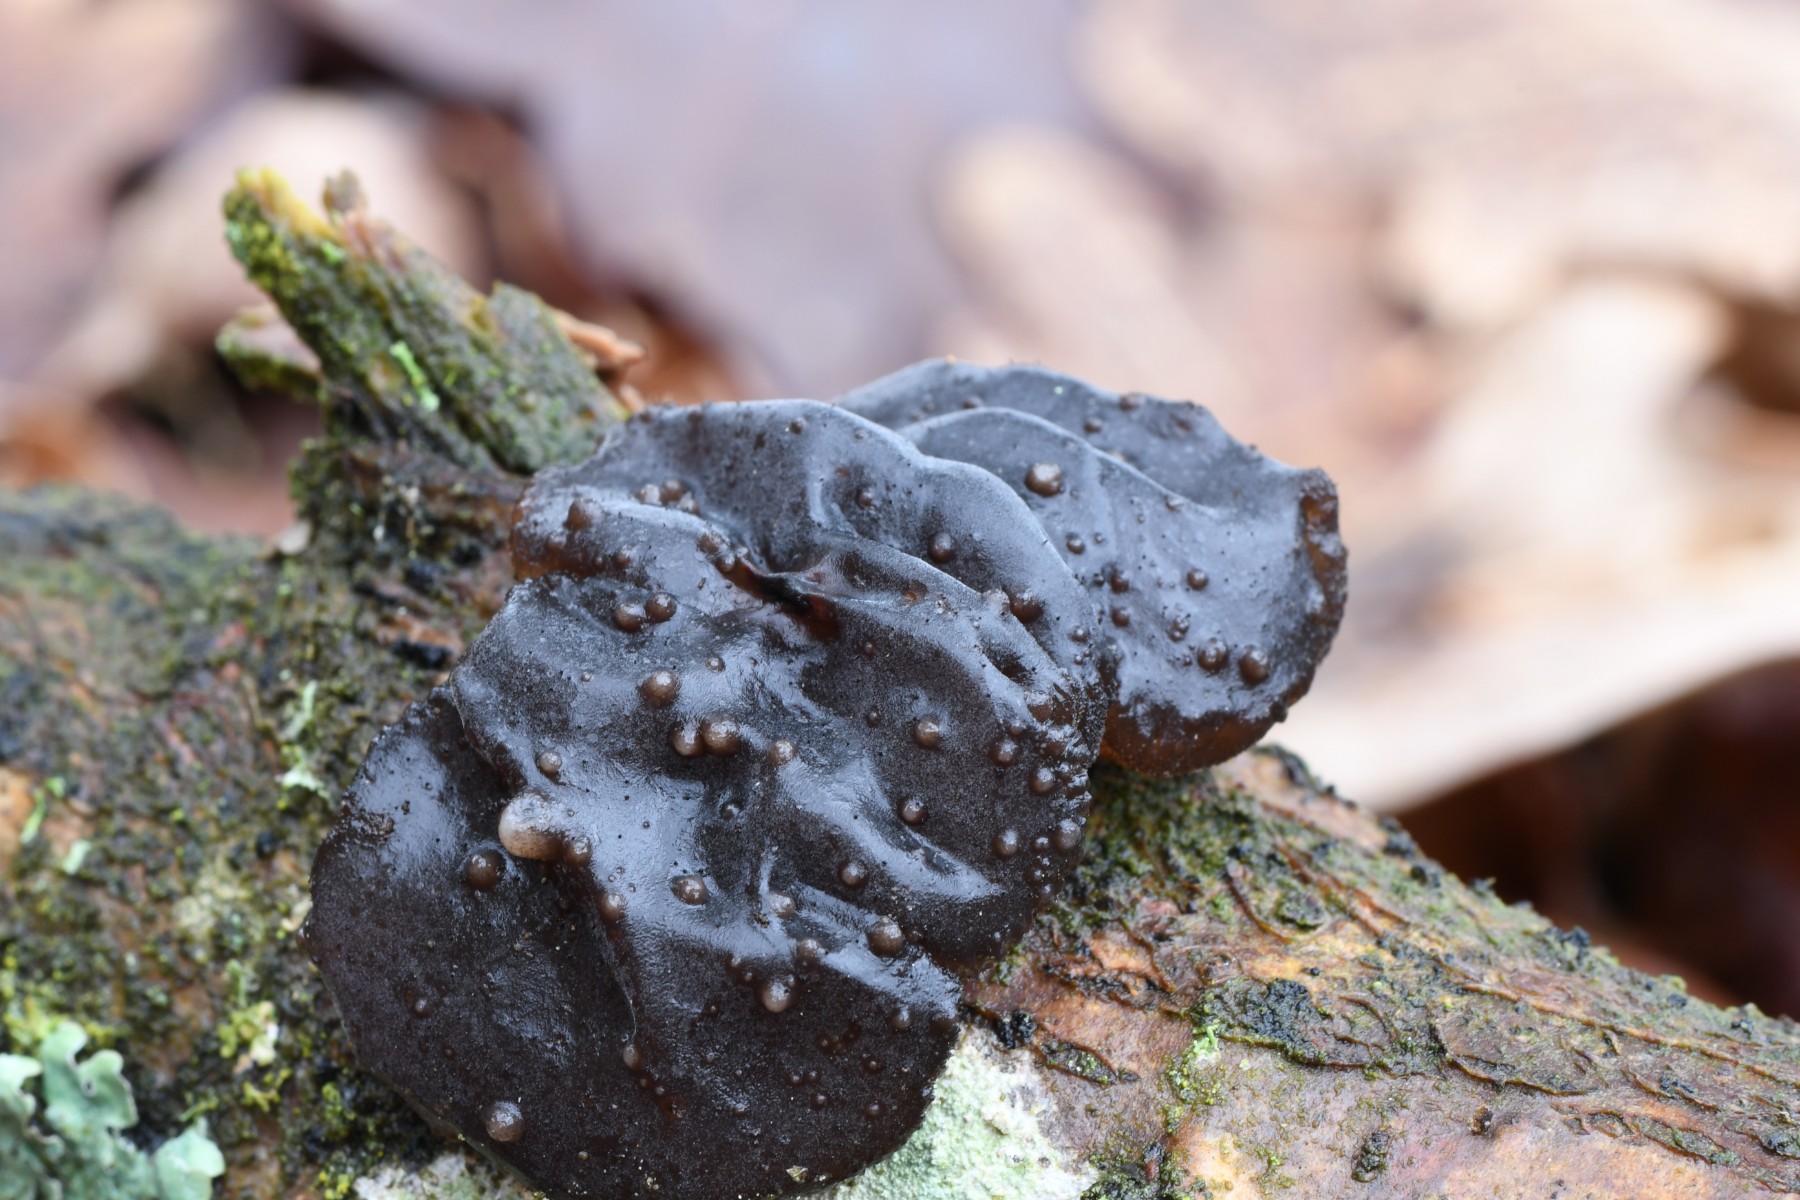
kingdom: Fungi
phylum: Basidiomycota
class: Agaricomycetes
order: Auriculariales
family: Auriculariaceae
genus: Exidia
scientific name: Exidia glandulosa
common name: ege-bævretop
